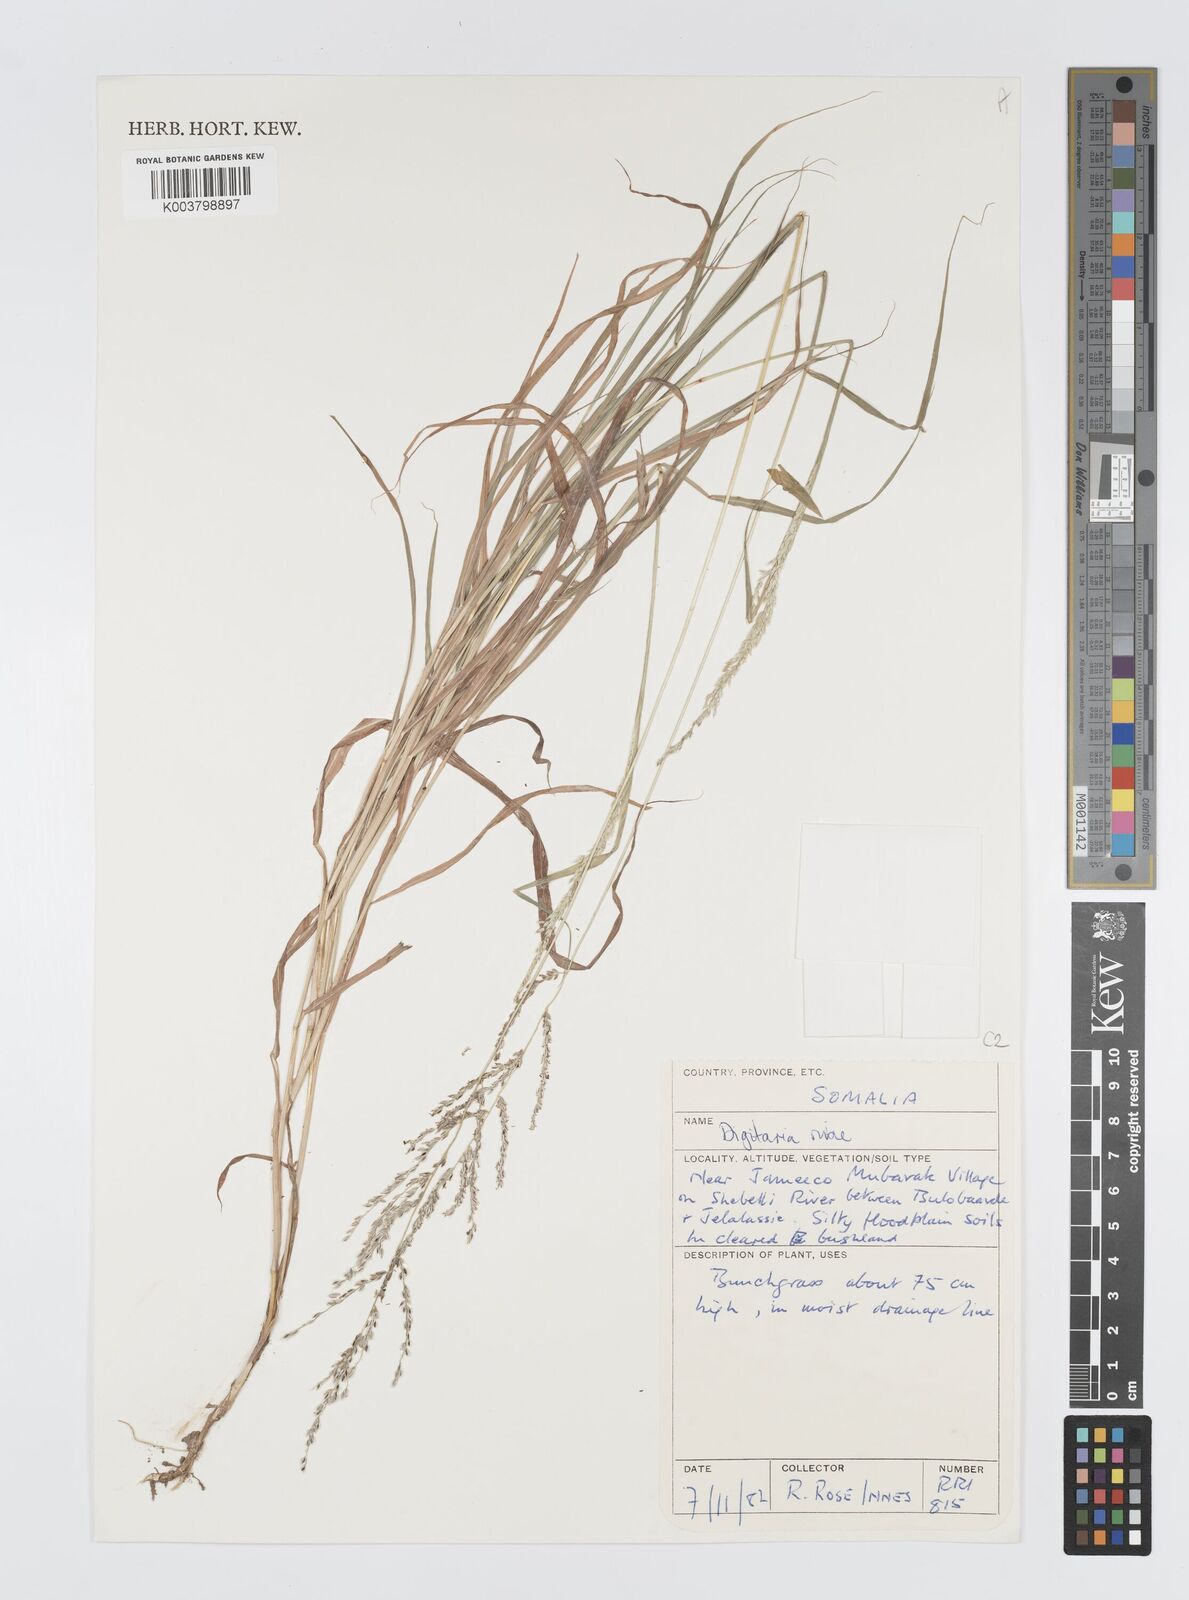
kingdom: Plantae
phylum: Tracheophyta
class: Liliopsida
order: Poales
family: Poaceae
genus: Digitaria
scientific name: Digitaria rivae
